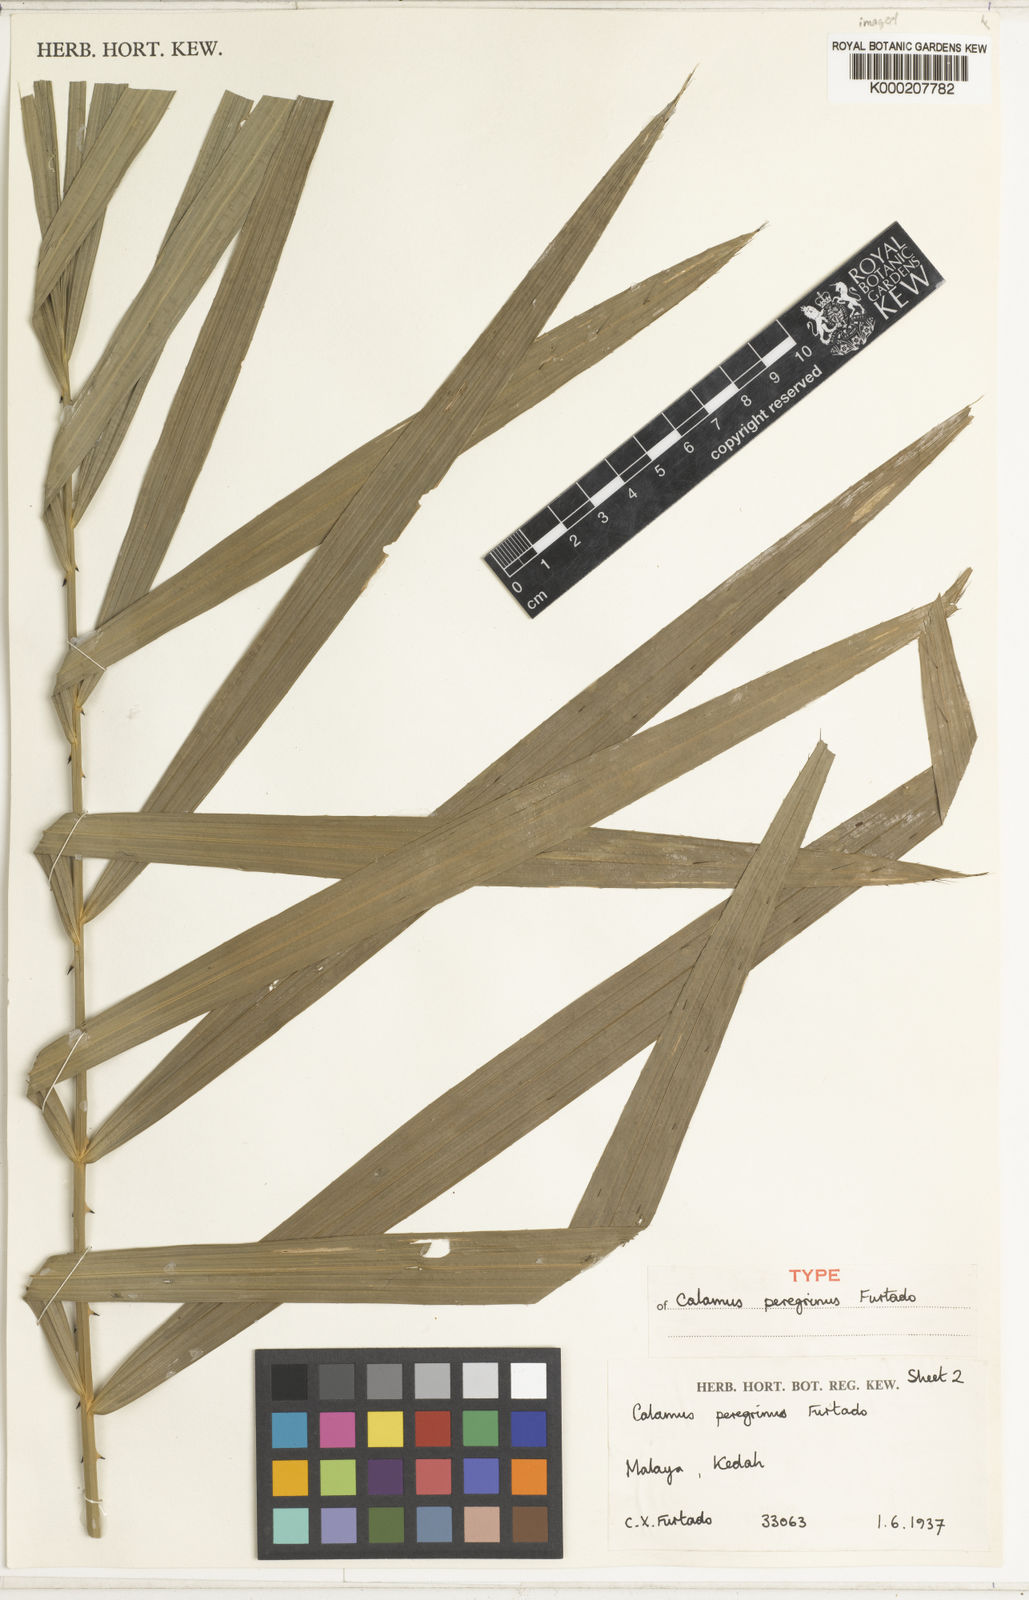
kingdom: Plantae
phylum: Tracheophyta
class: Liliopsida
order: Arecales
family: Arecaceae
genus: Calamus
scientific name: Calamus peregrinus
